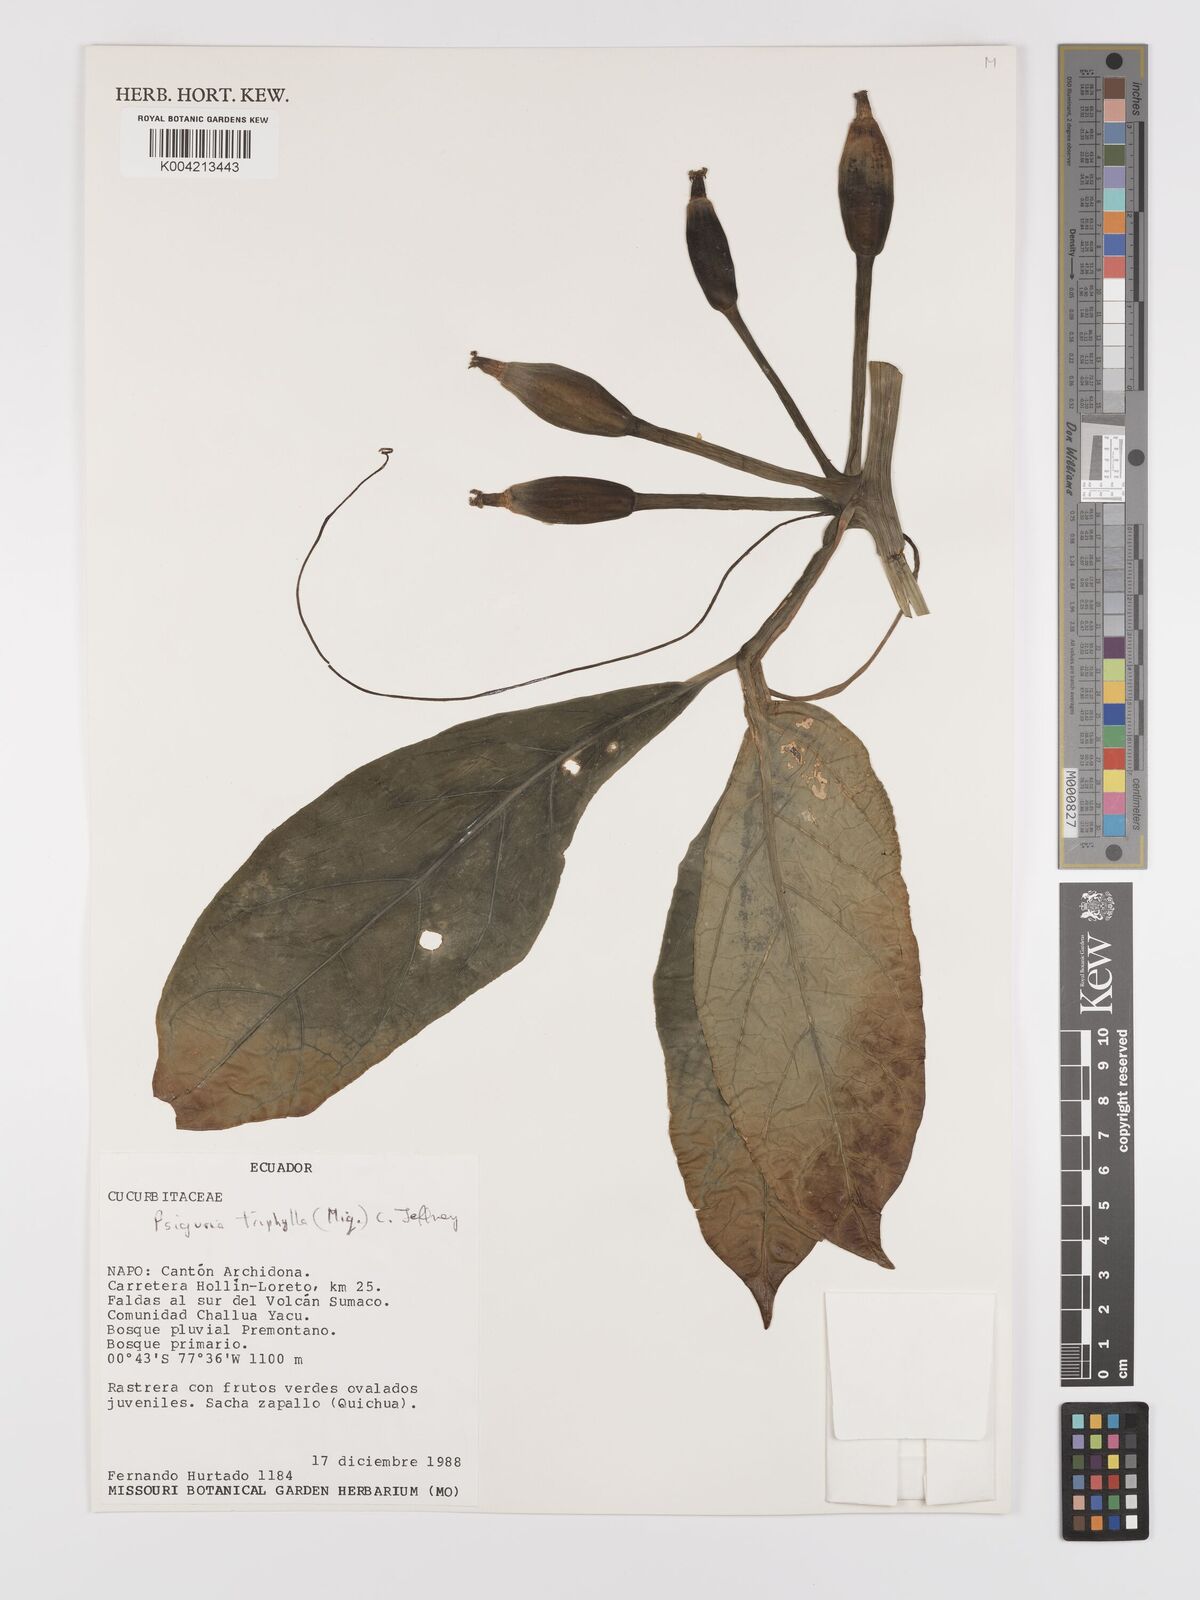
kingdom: Plantae
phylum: Tracheophyta
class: Magnoliopsida
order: Cucurbitales
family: Cucurbitaceae
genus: Psiguria
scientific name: Psiguria triphylla
